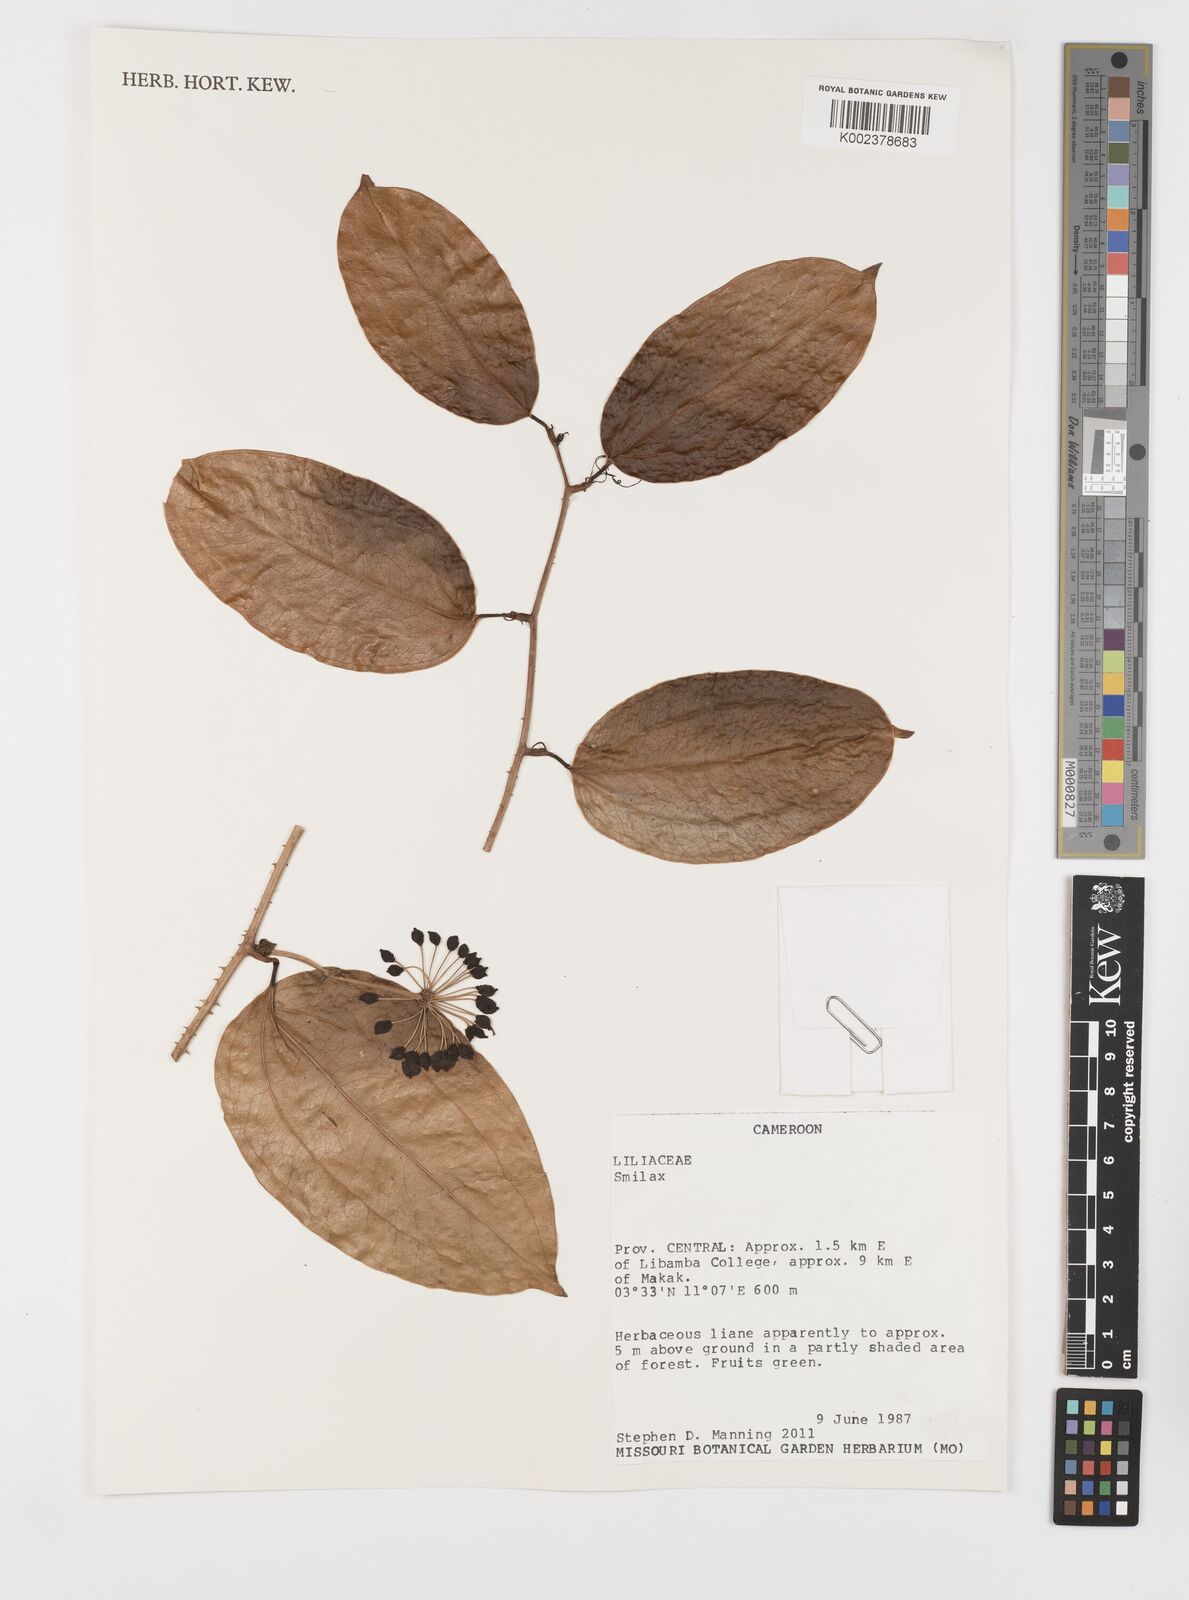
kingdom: Plantae
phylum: Tracheophyta
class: Liliopsida
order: Liliales
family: Smilacaceae
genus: Smilax
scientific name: Smilax anceps
